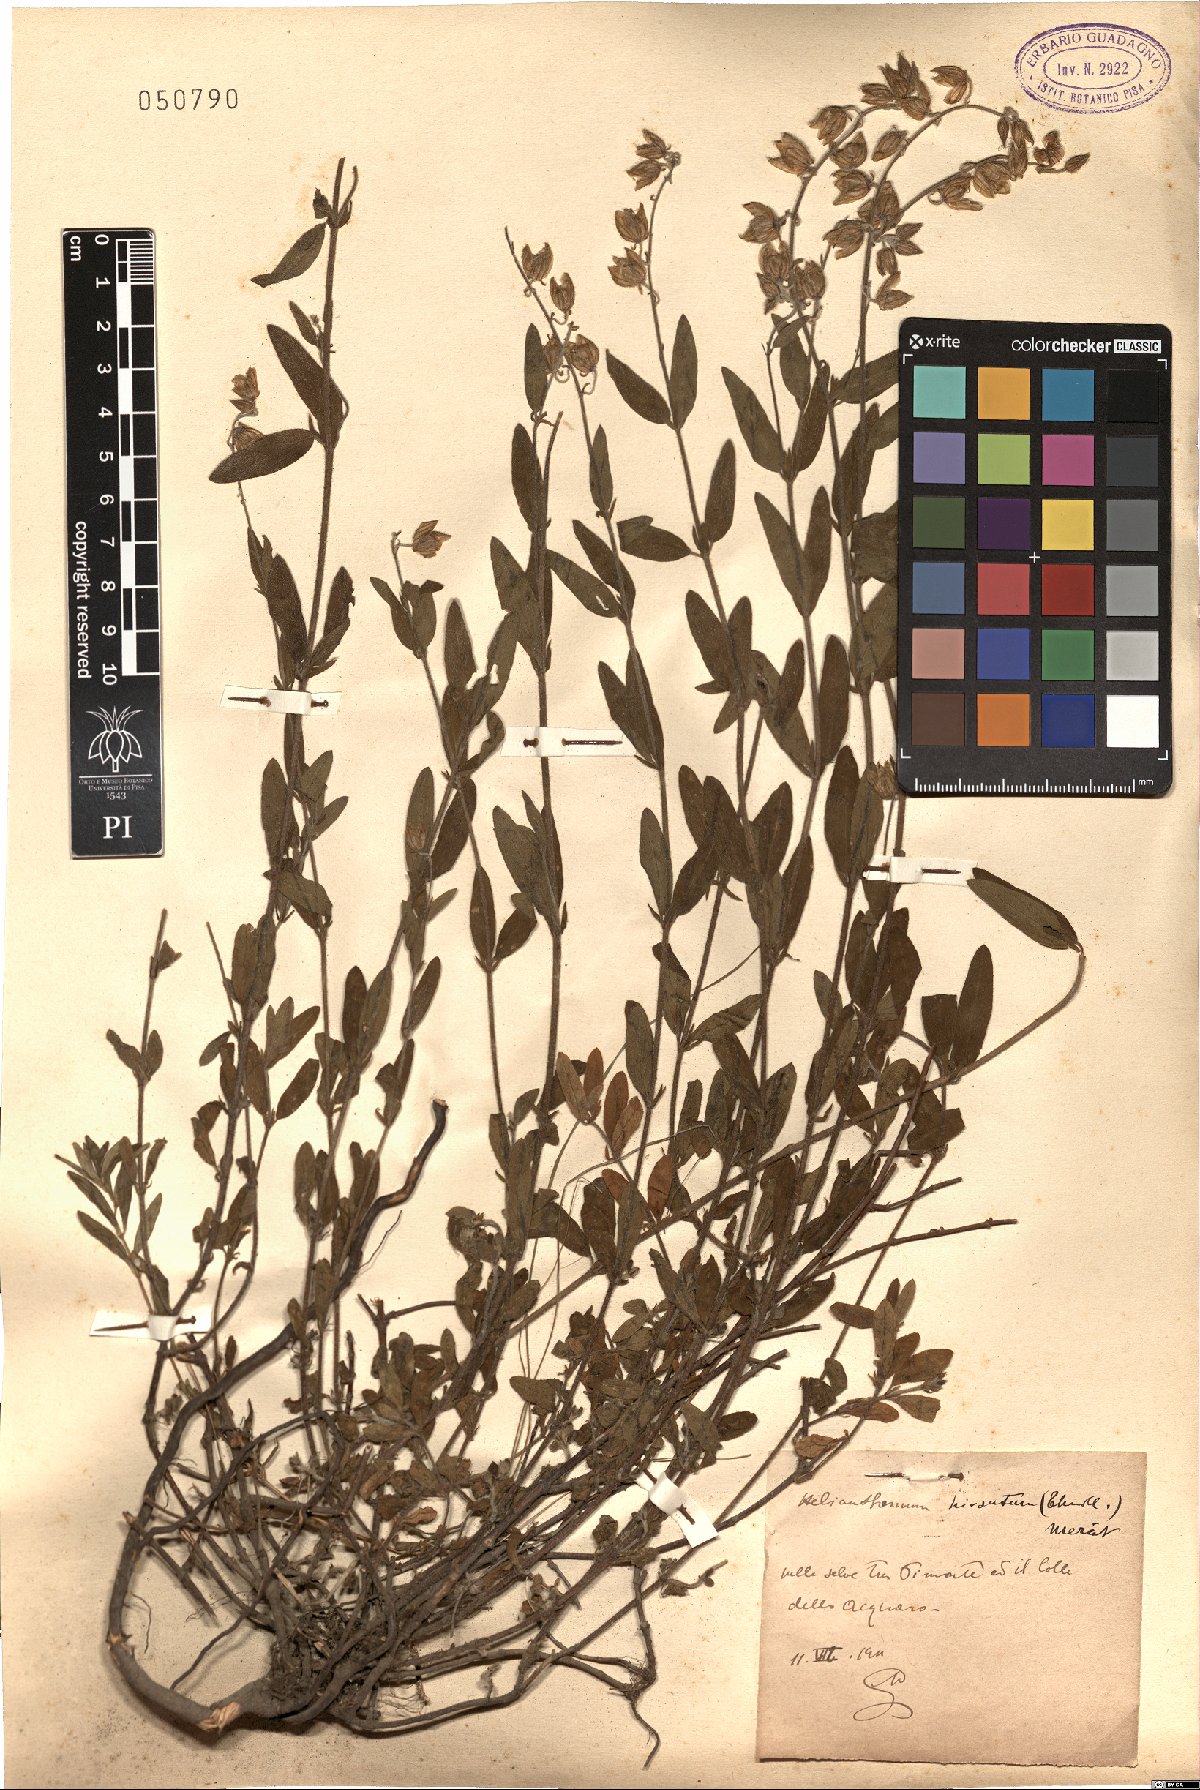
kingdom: Plantae
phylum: Tracheophyta
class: Magnoliopsida
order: Malvales
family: Cistaceae
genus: Helianthemum
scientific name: Helianthemum nummularium
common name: Common rock-rose
